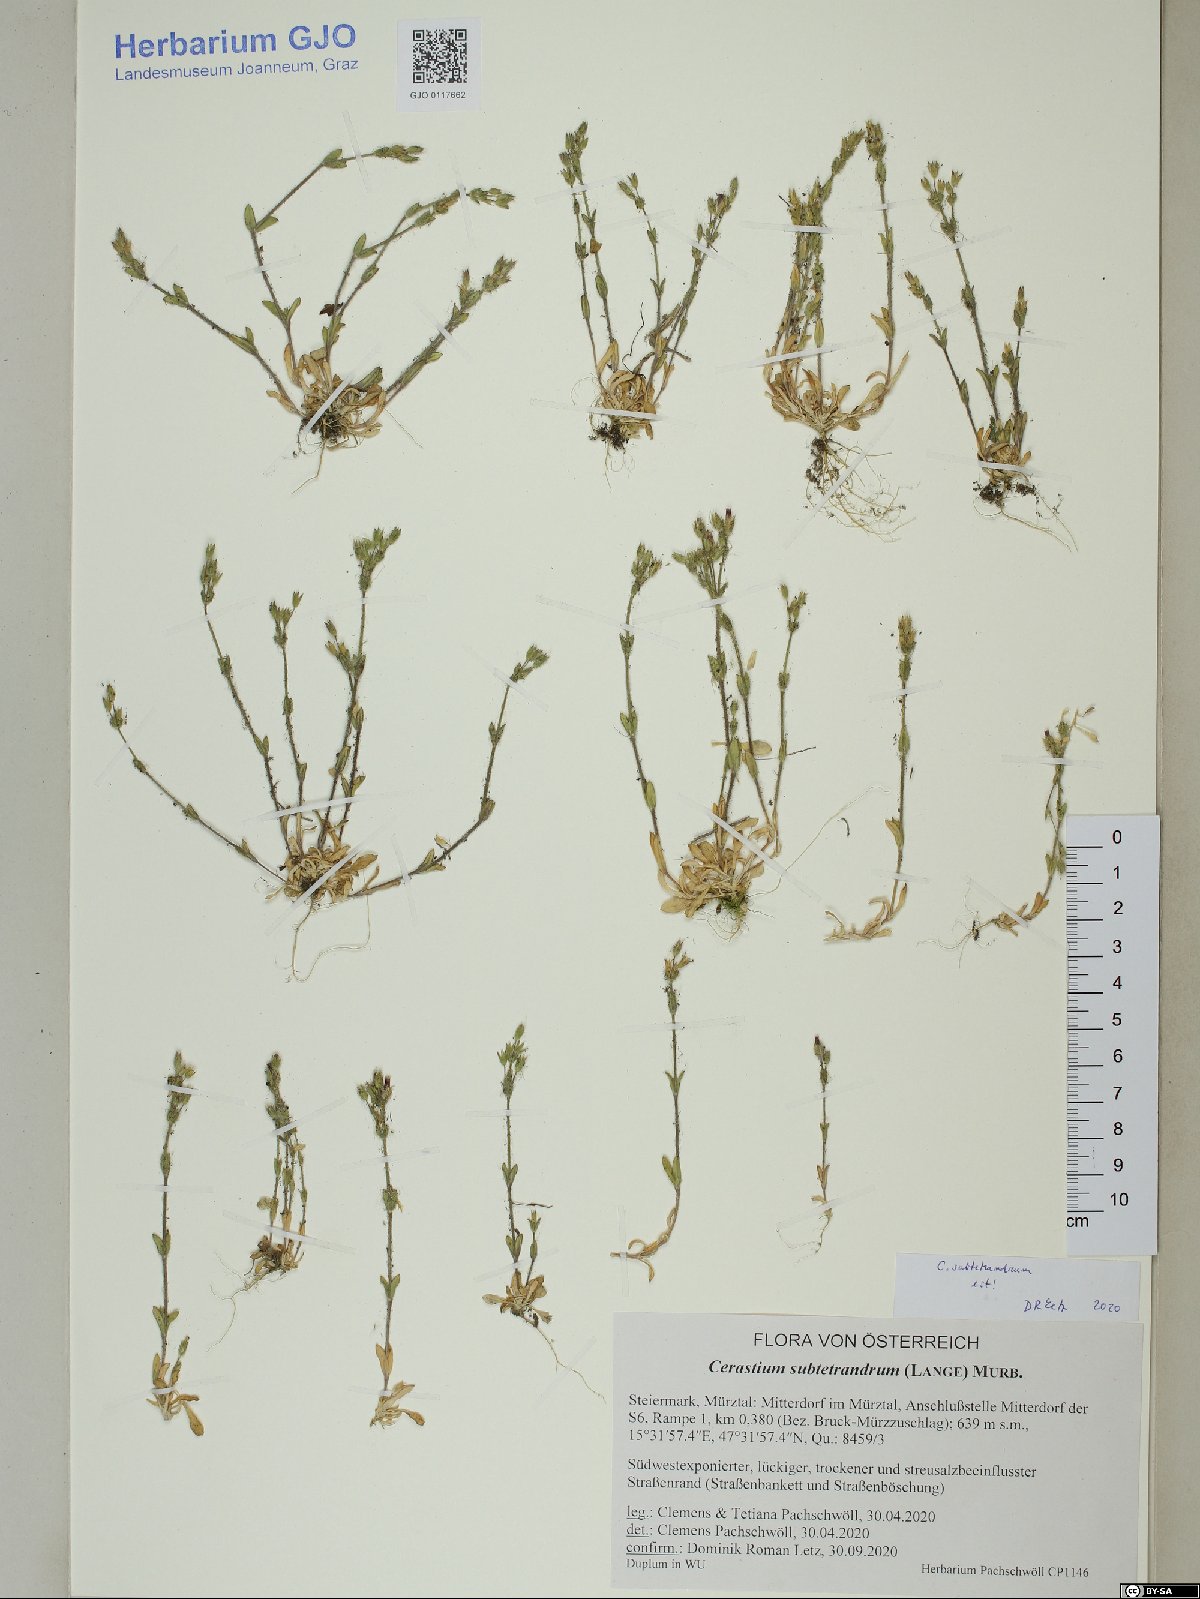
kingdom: Plantae
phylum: Tracheophyta
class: Magnoliopsida
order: Caryophyllales
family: Caryophyllaceae
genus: Cerastium
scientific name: Cerastium subtetrandrum
